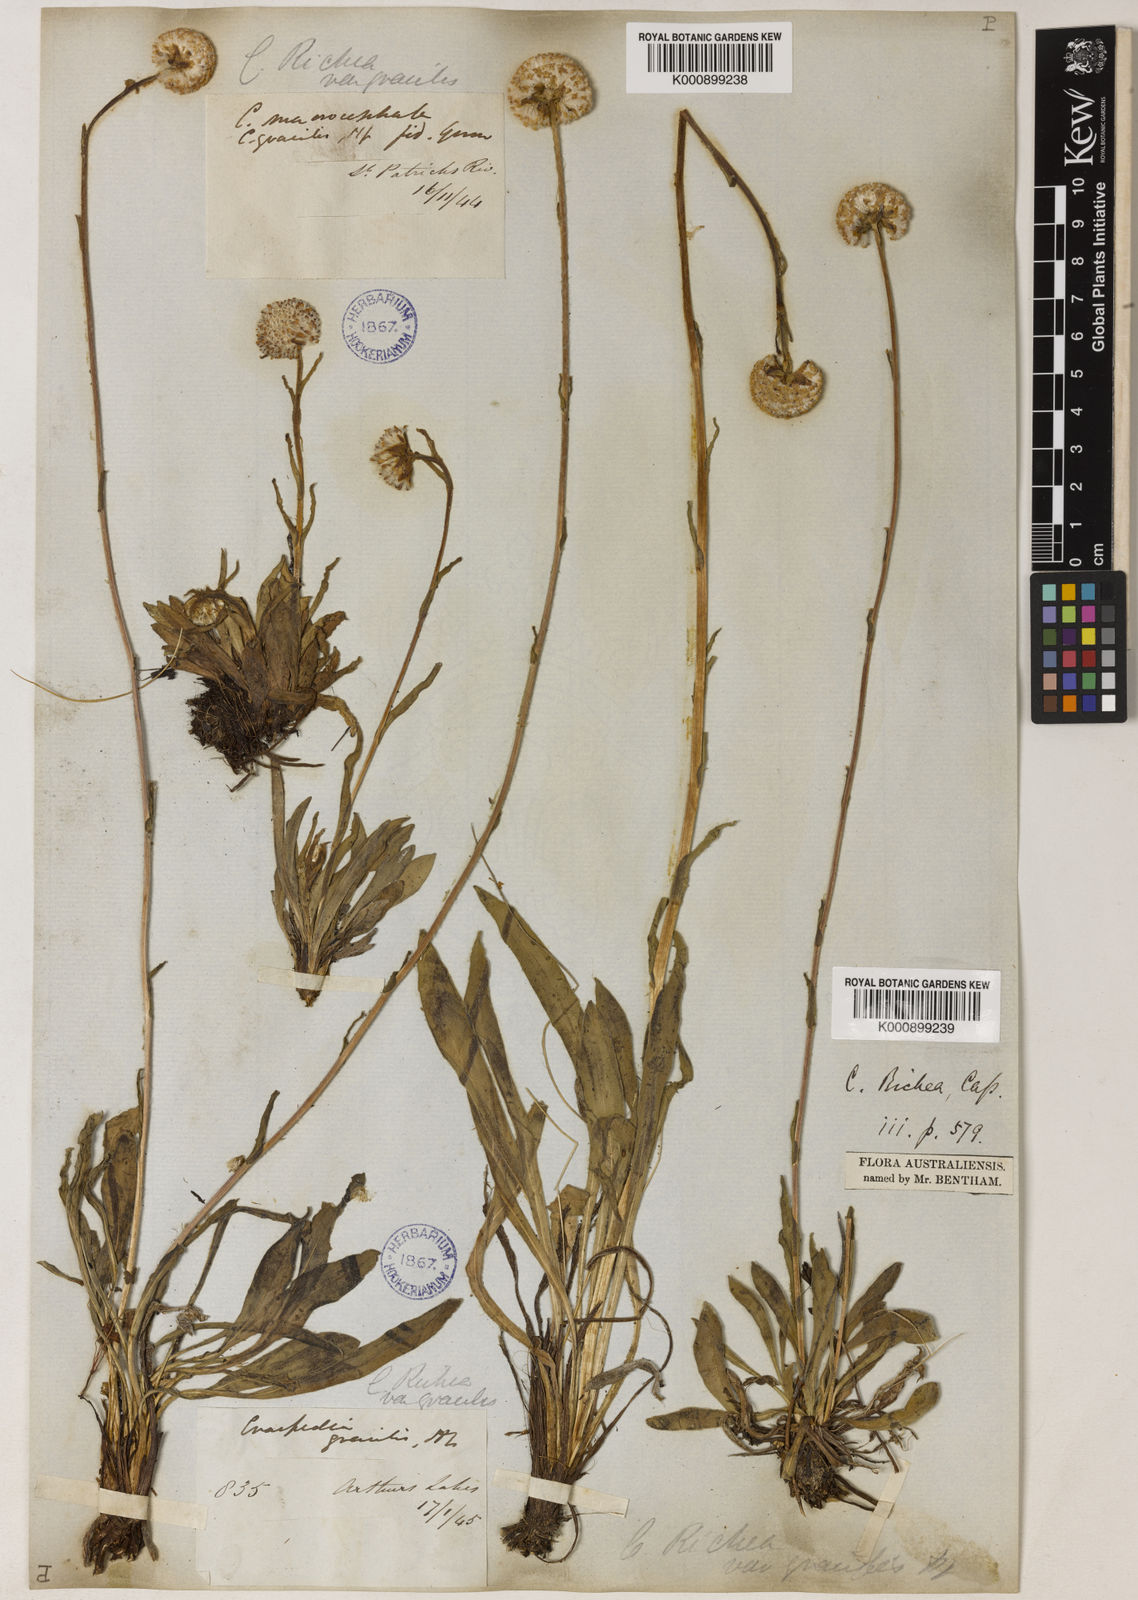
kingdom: Plantae
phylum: Tracheophyta
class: Magnoliopsida
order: Asterales
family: Asteraceae
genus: Craspedia
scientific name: Craspedia glauca
